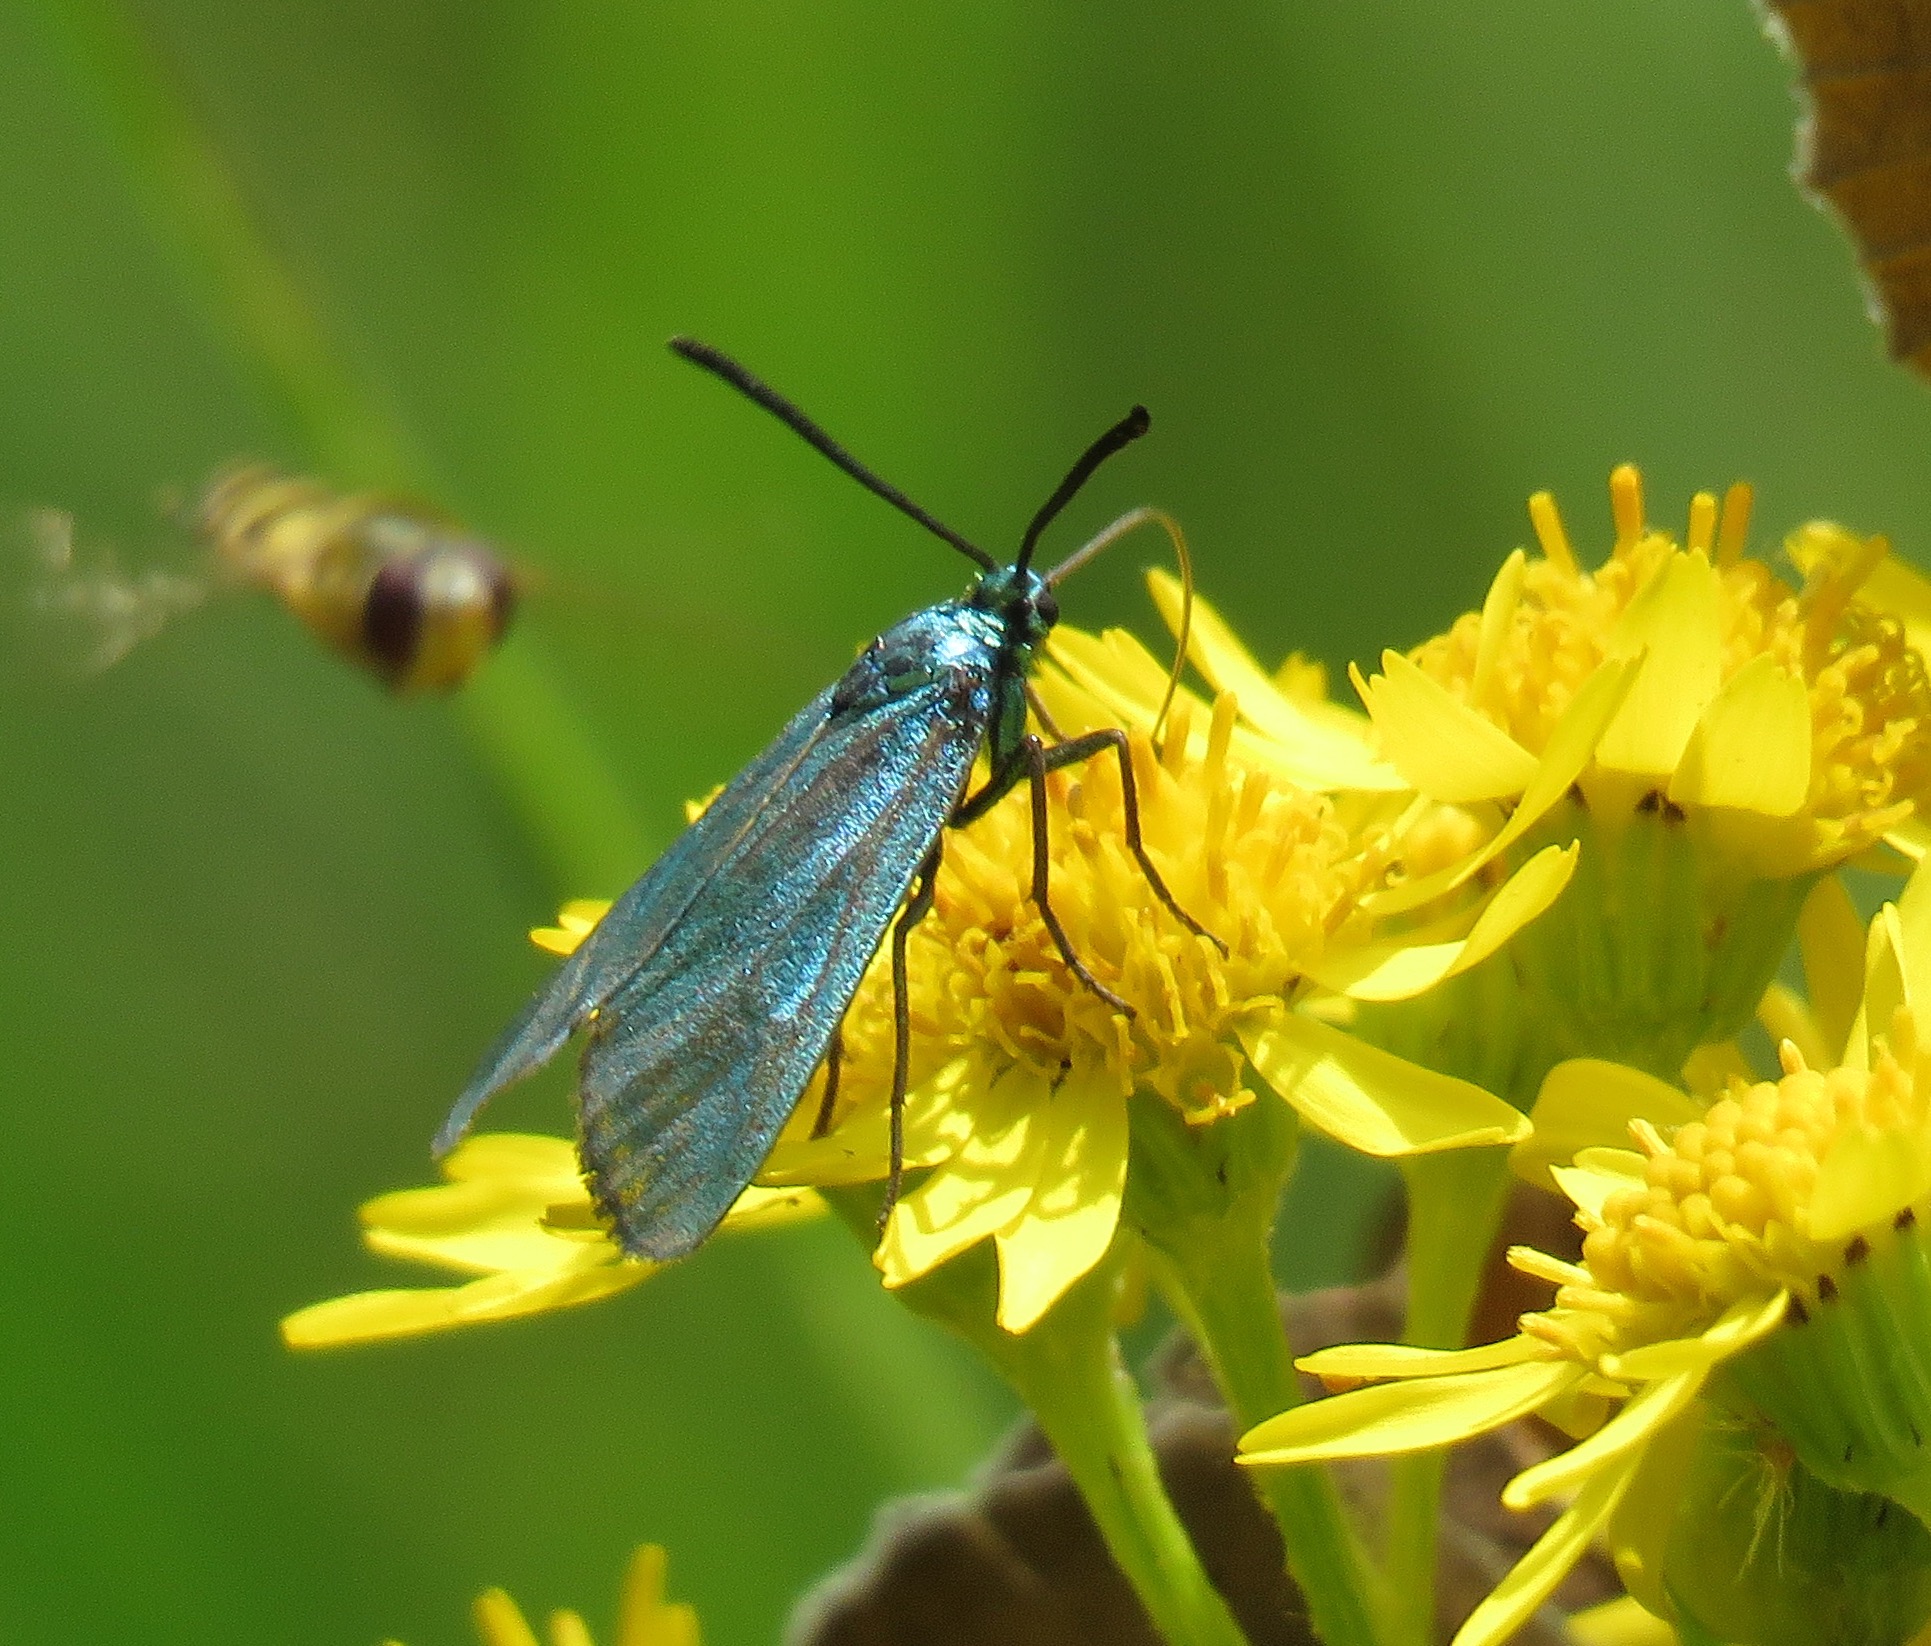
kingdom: Animalia
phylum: Arthropoda
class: Insecta
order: Lepidoptera
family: Zygaenidae
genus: Adscita
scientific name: Adscita statices
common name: Metalvinge
